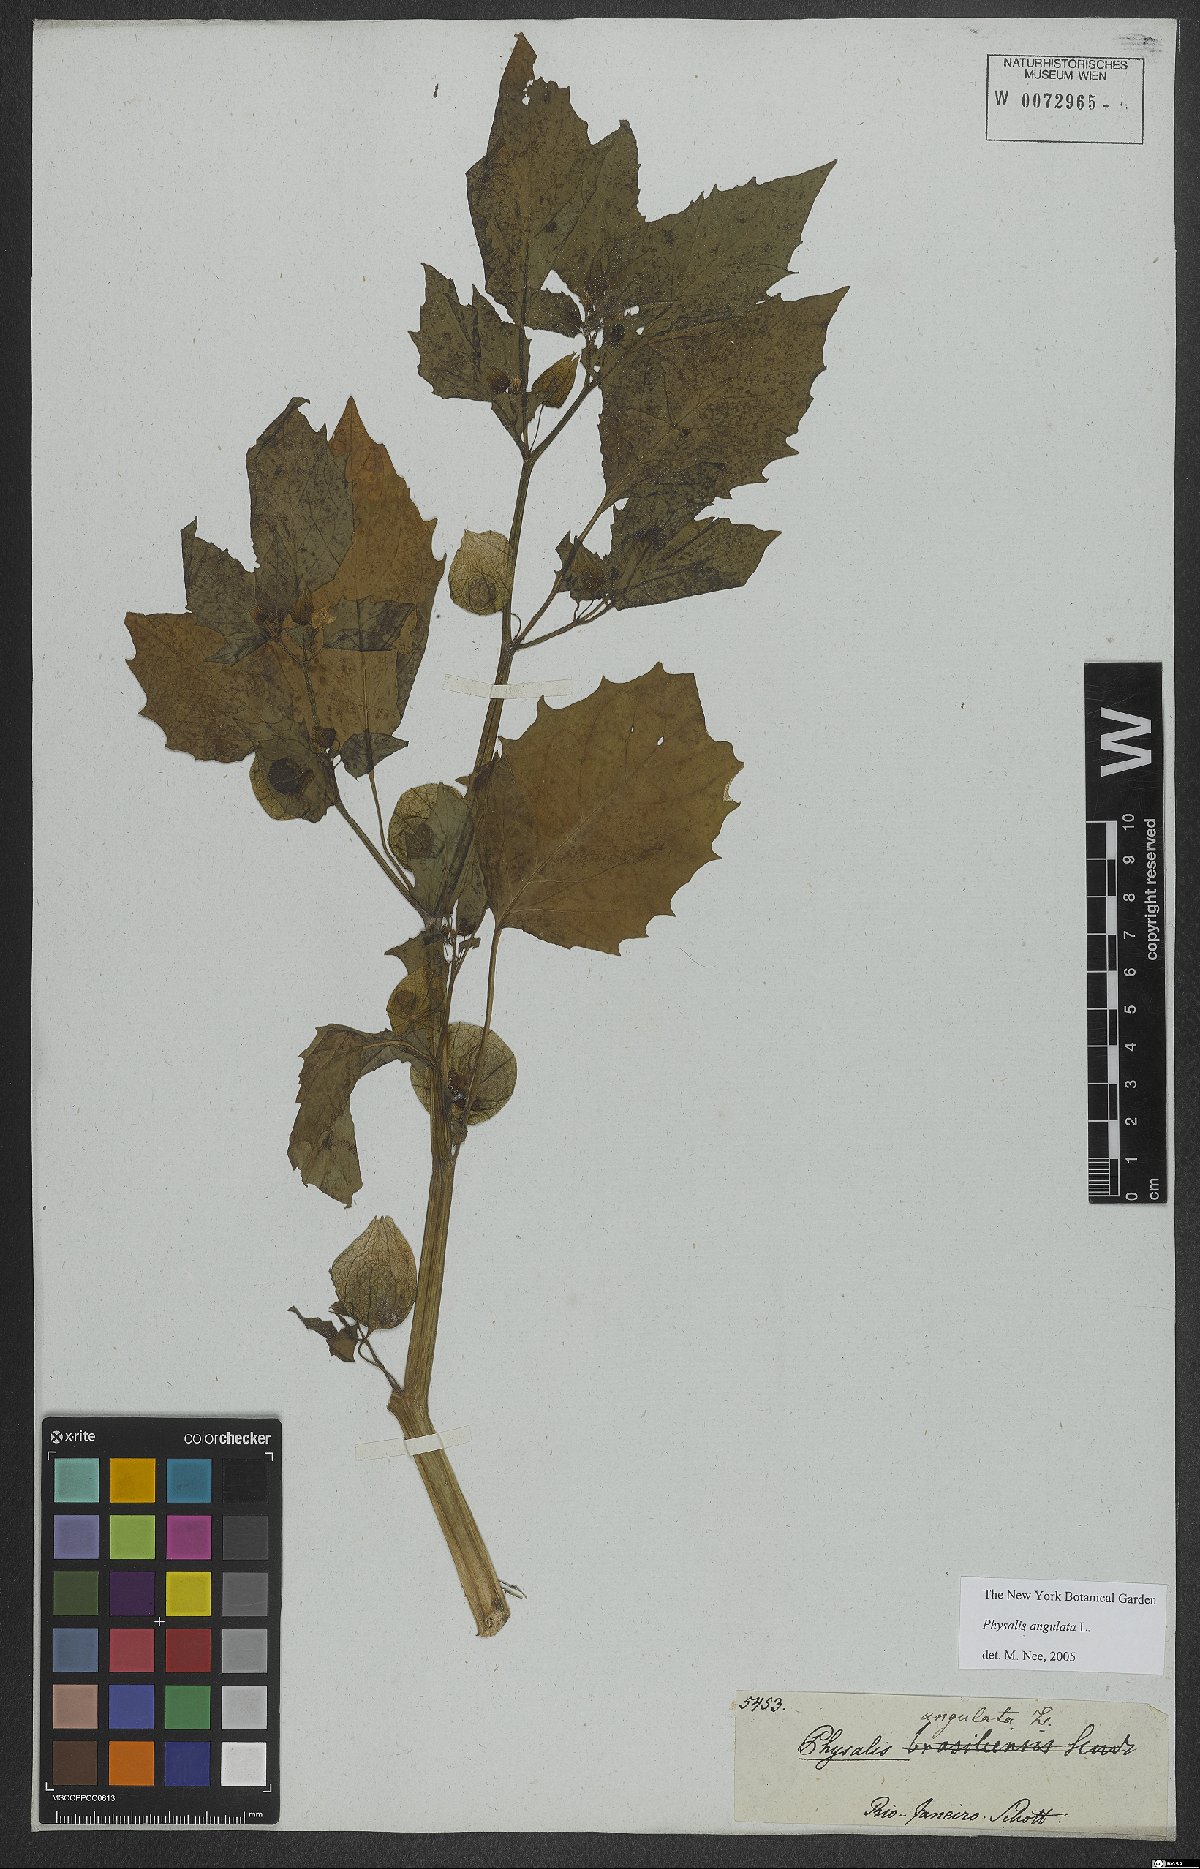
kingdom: Plantae
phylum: Tracheophyta
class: Magnoliopsida
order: Solanales
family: Solanaceae
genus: Physalis
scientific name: Physalis angulata
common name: Angular winter-cherry
